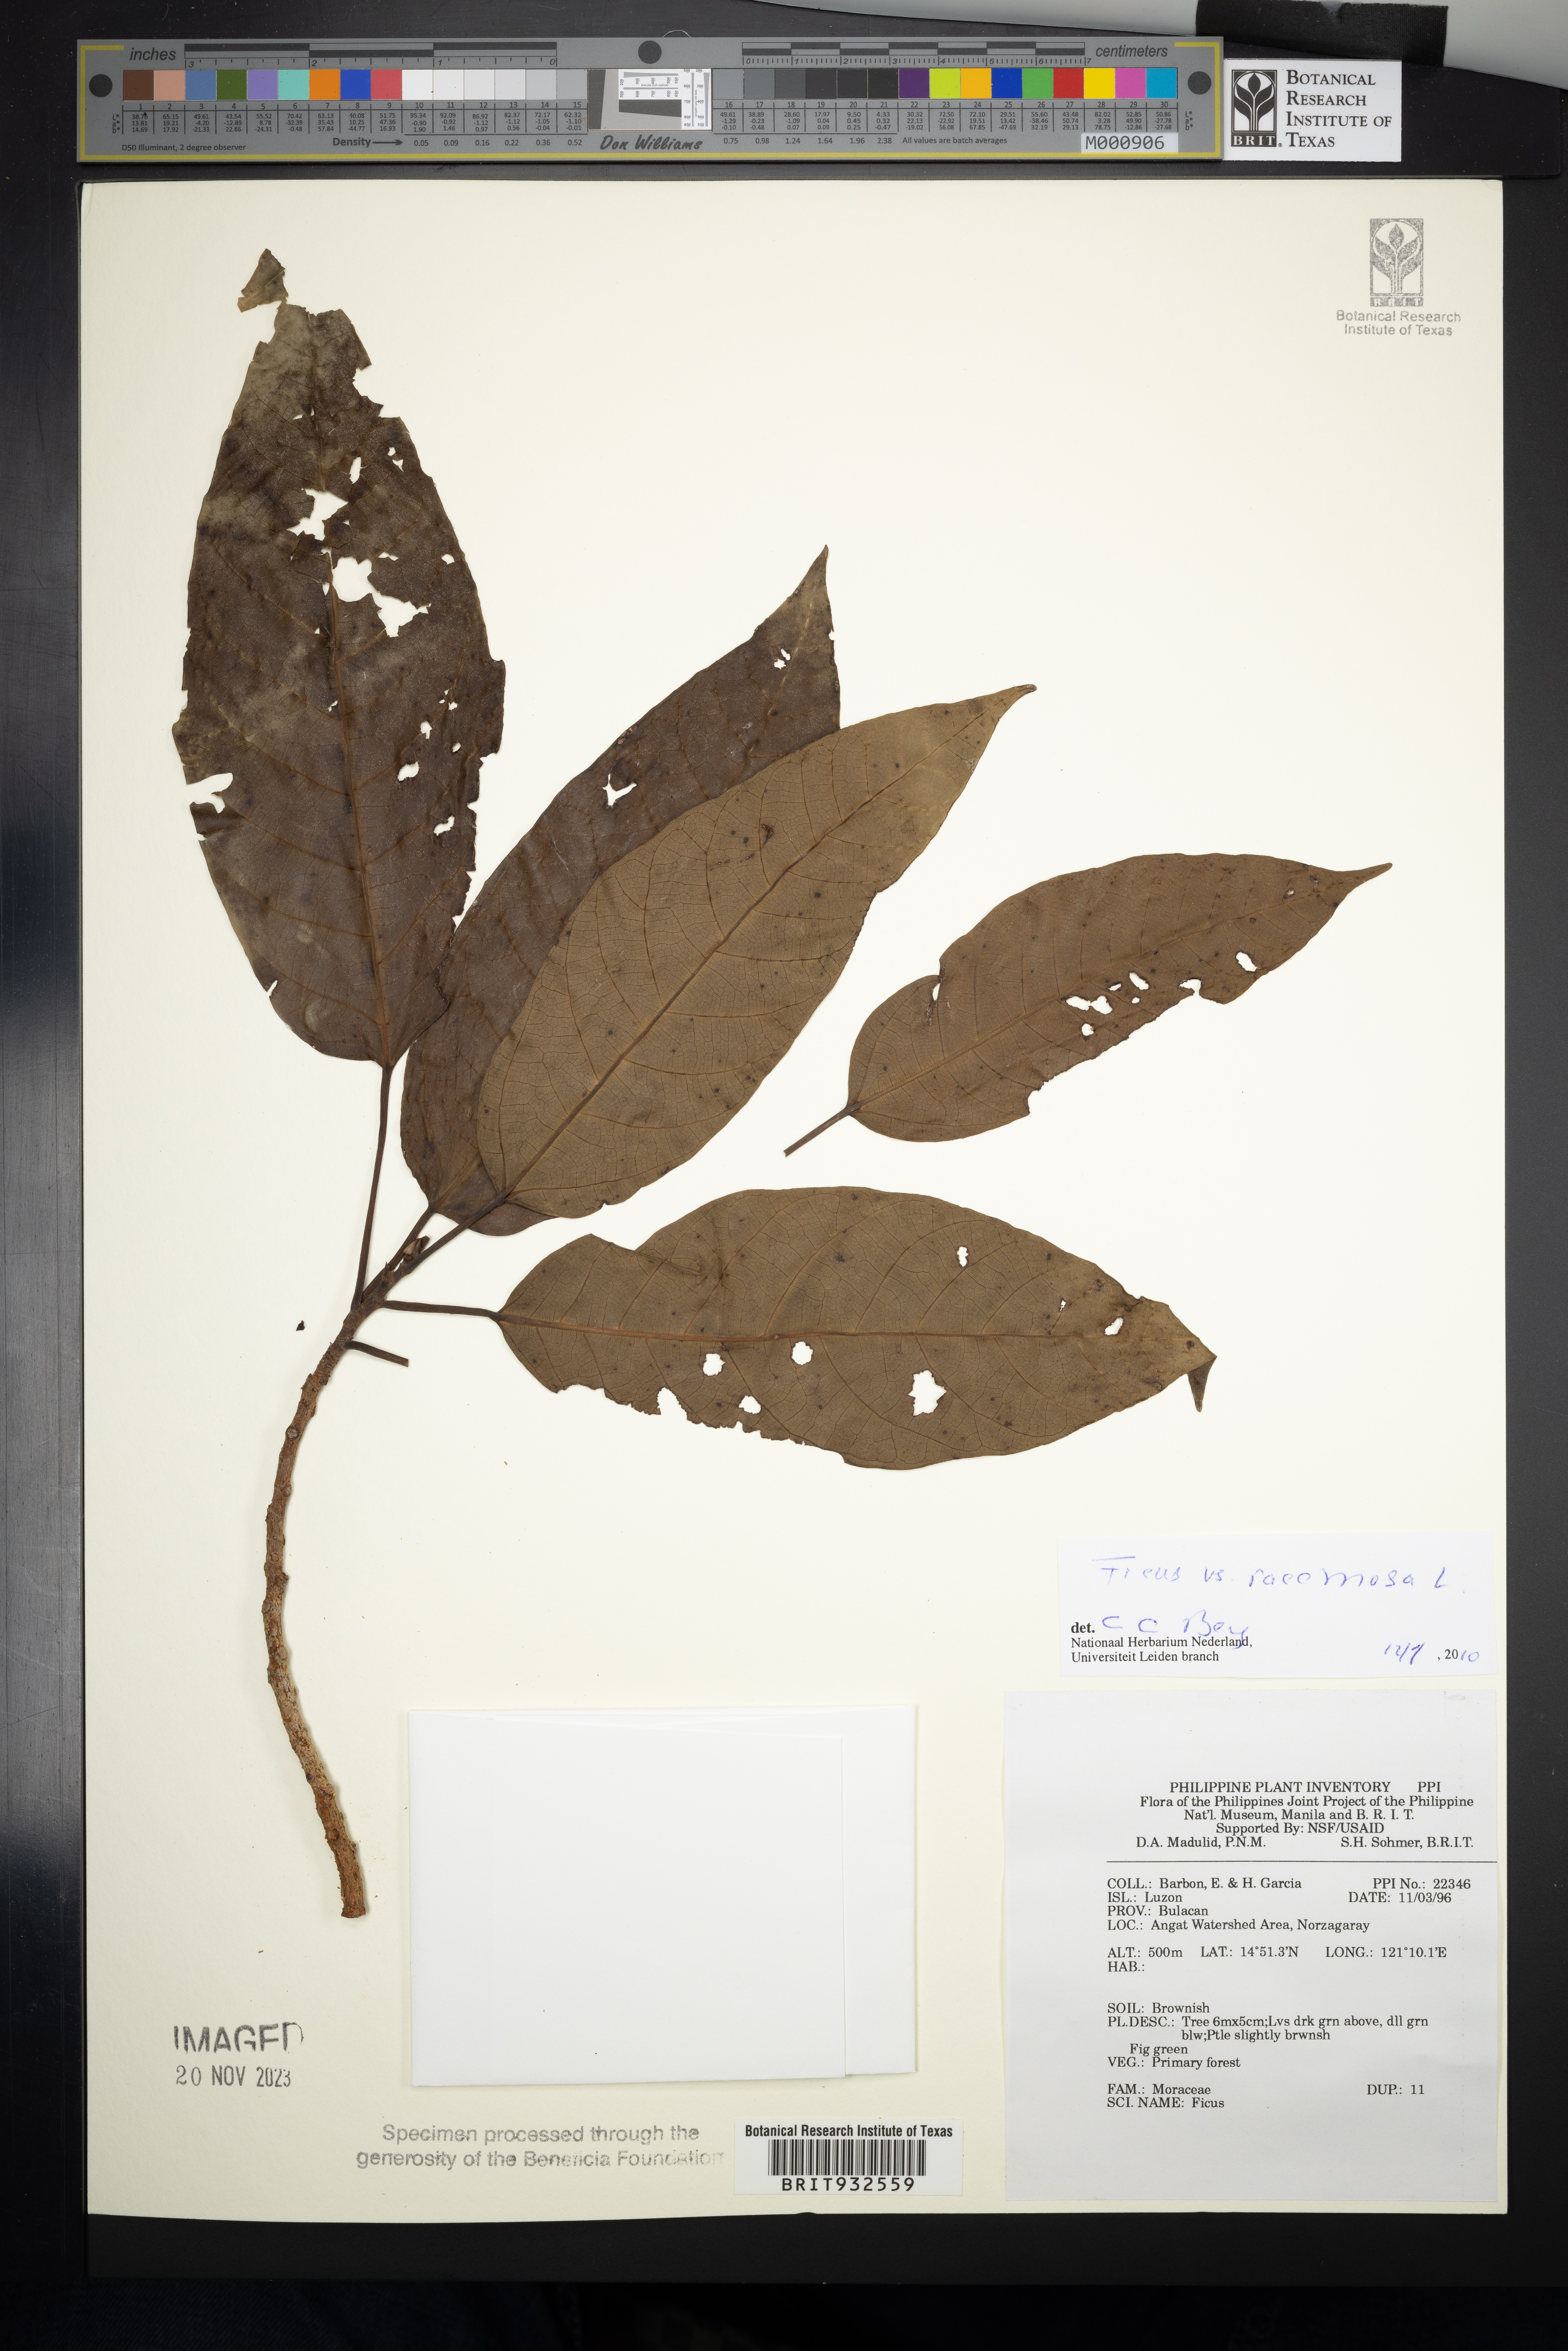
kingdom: Plantae
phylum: Tracheophyta
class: Magnoliopsida
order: Rosales
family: Moraceae
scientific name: Moraceae
